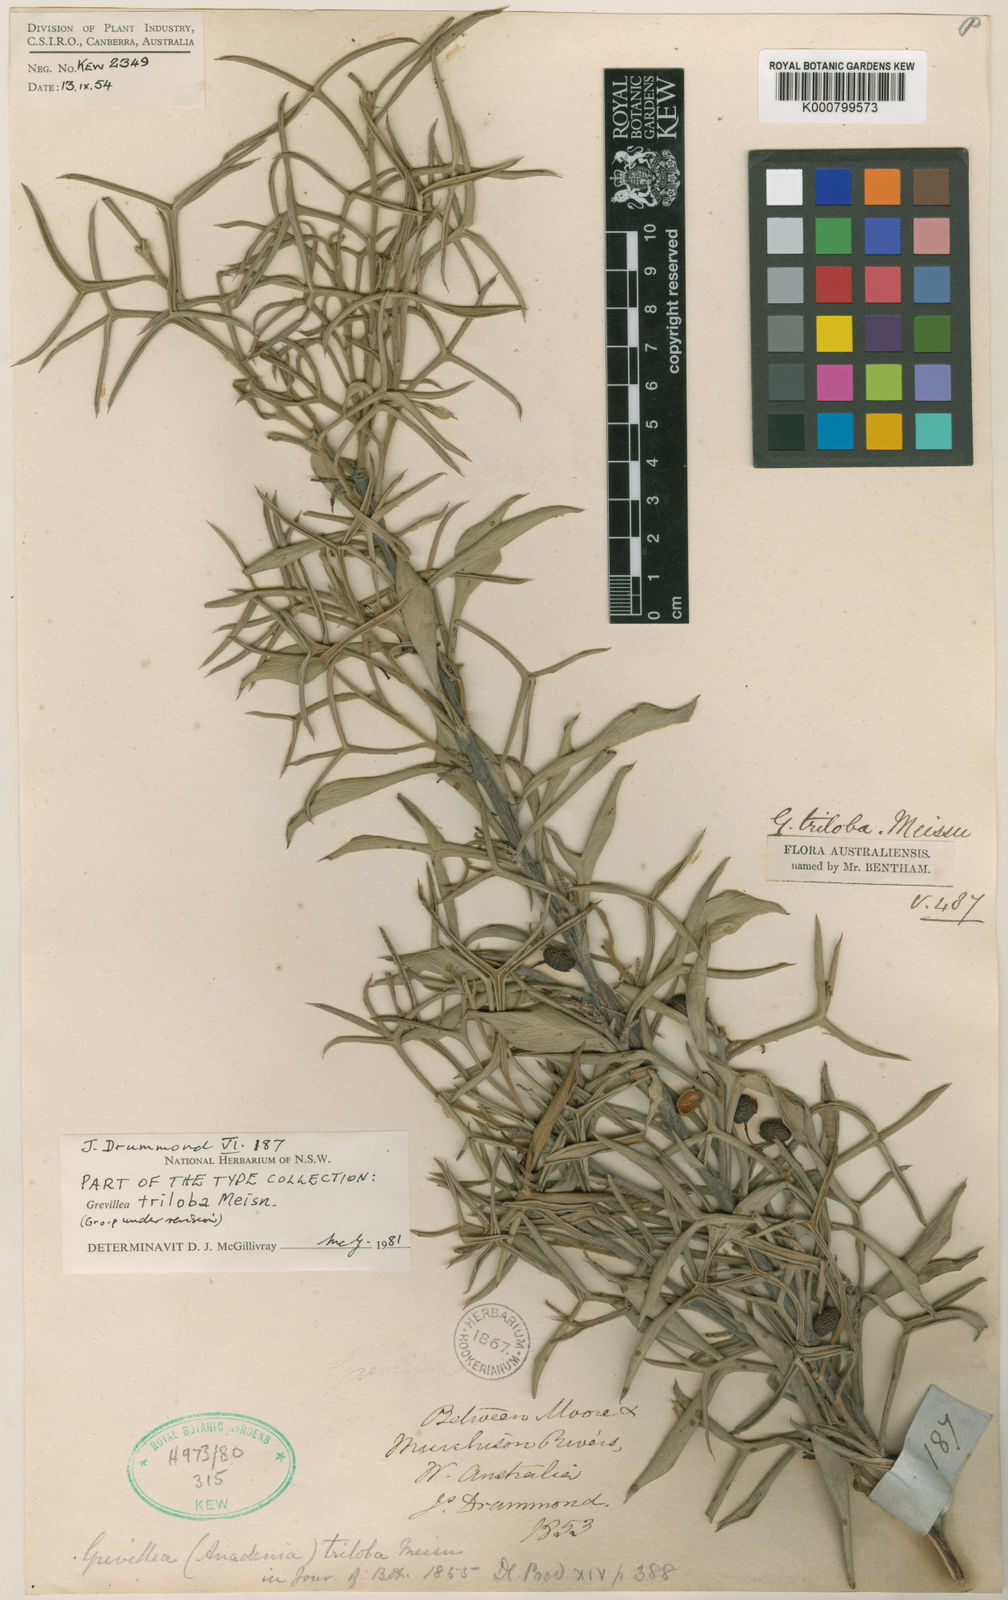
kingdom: Plantae
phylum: Tracheophyta
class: Magnoliopsida
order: Proteales
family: Proteaceae
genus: Grevillea
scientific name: Grevillea triloba
